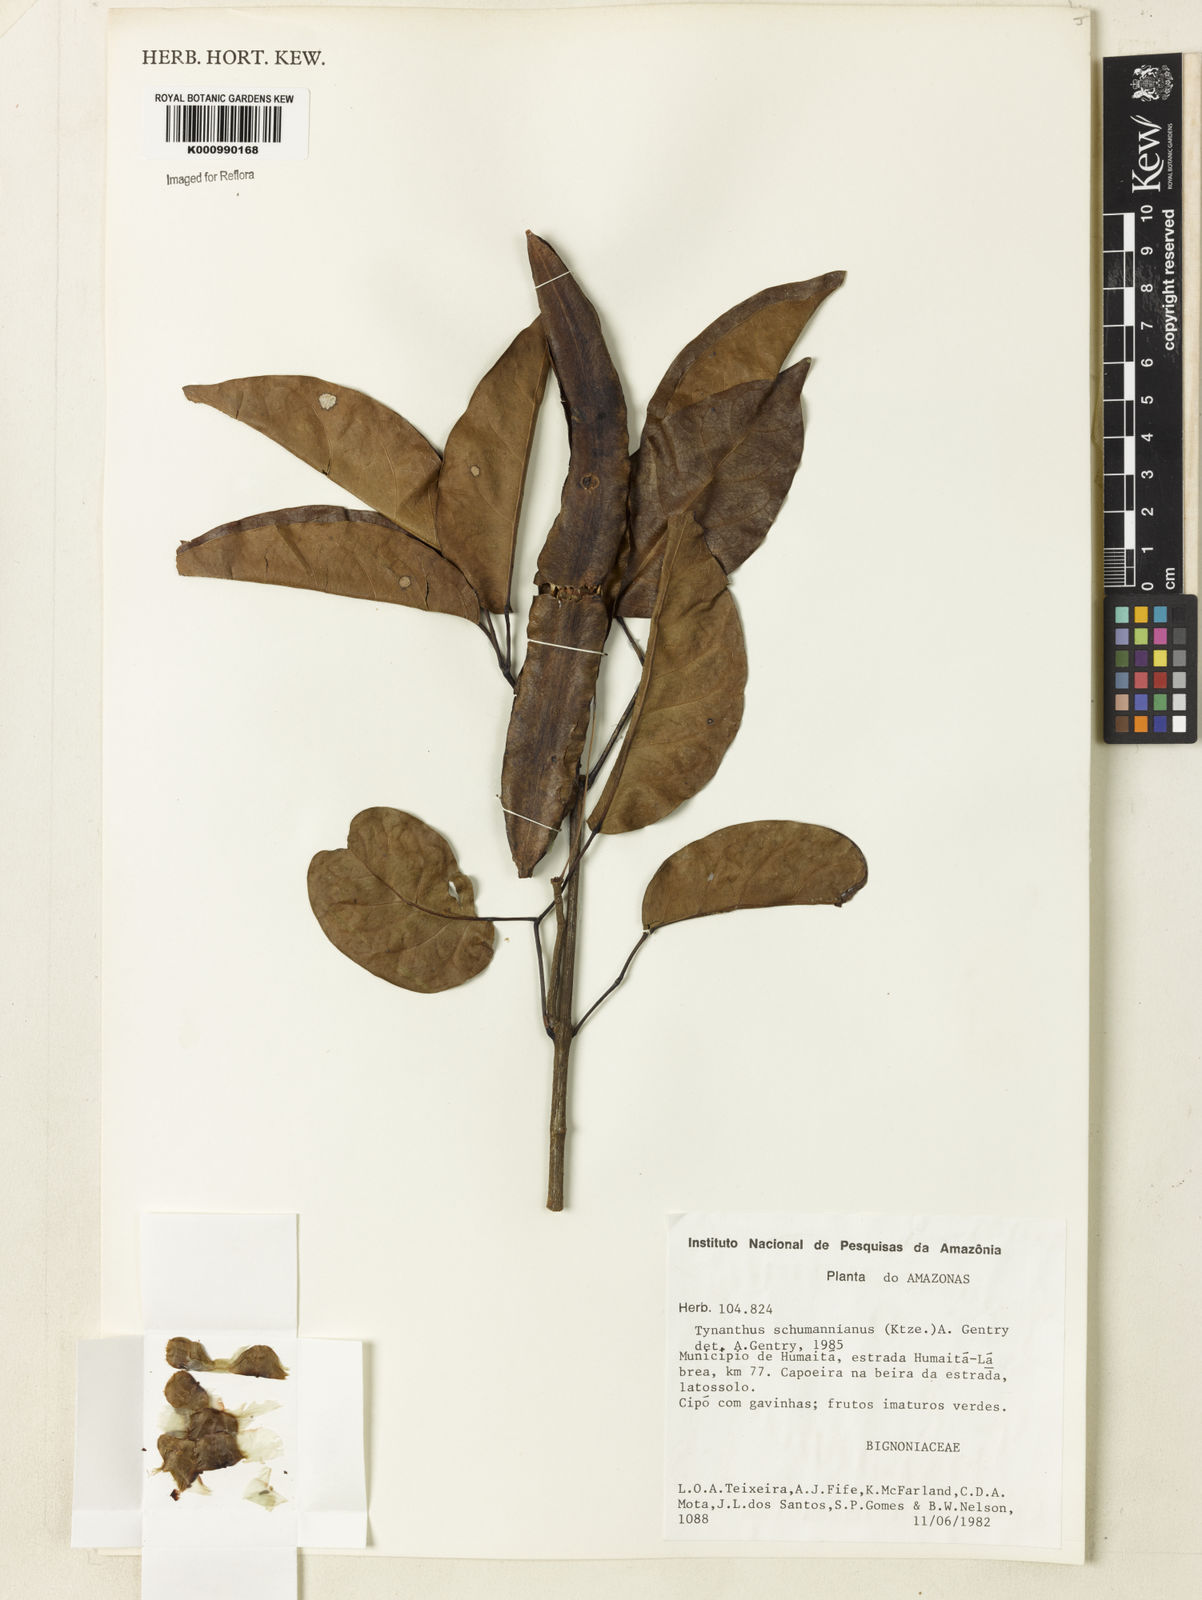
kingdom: Plantae
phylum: Tracheophyta
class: Magnoliopsida
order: Lamiales
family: Bignoniaceae
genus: Tynanthus
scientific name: Tynanthus schumannianus
